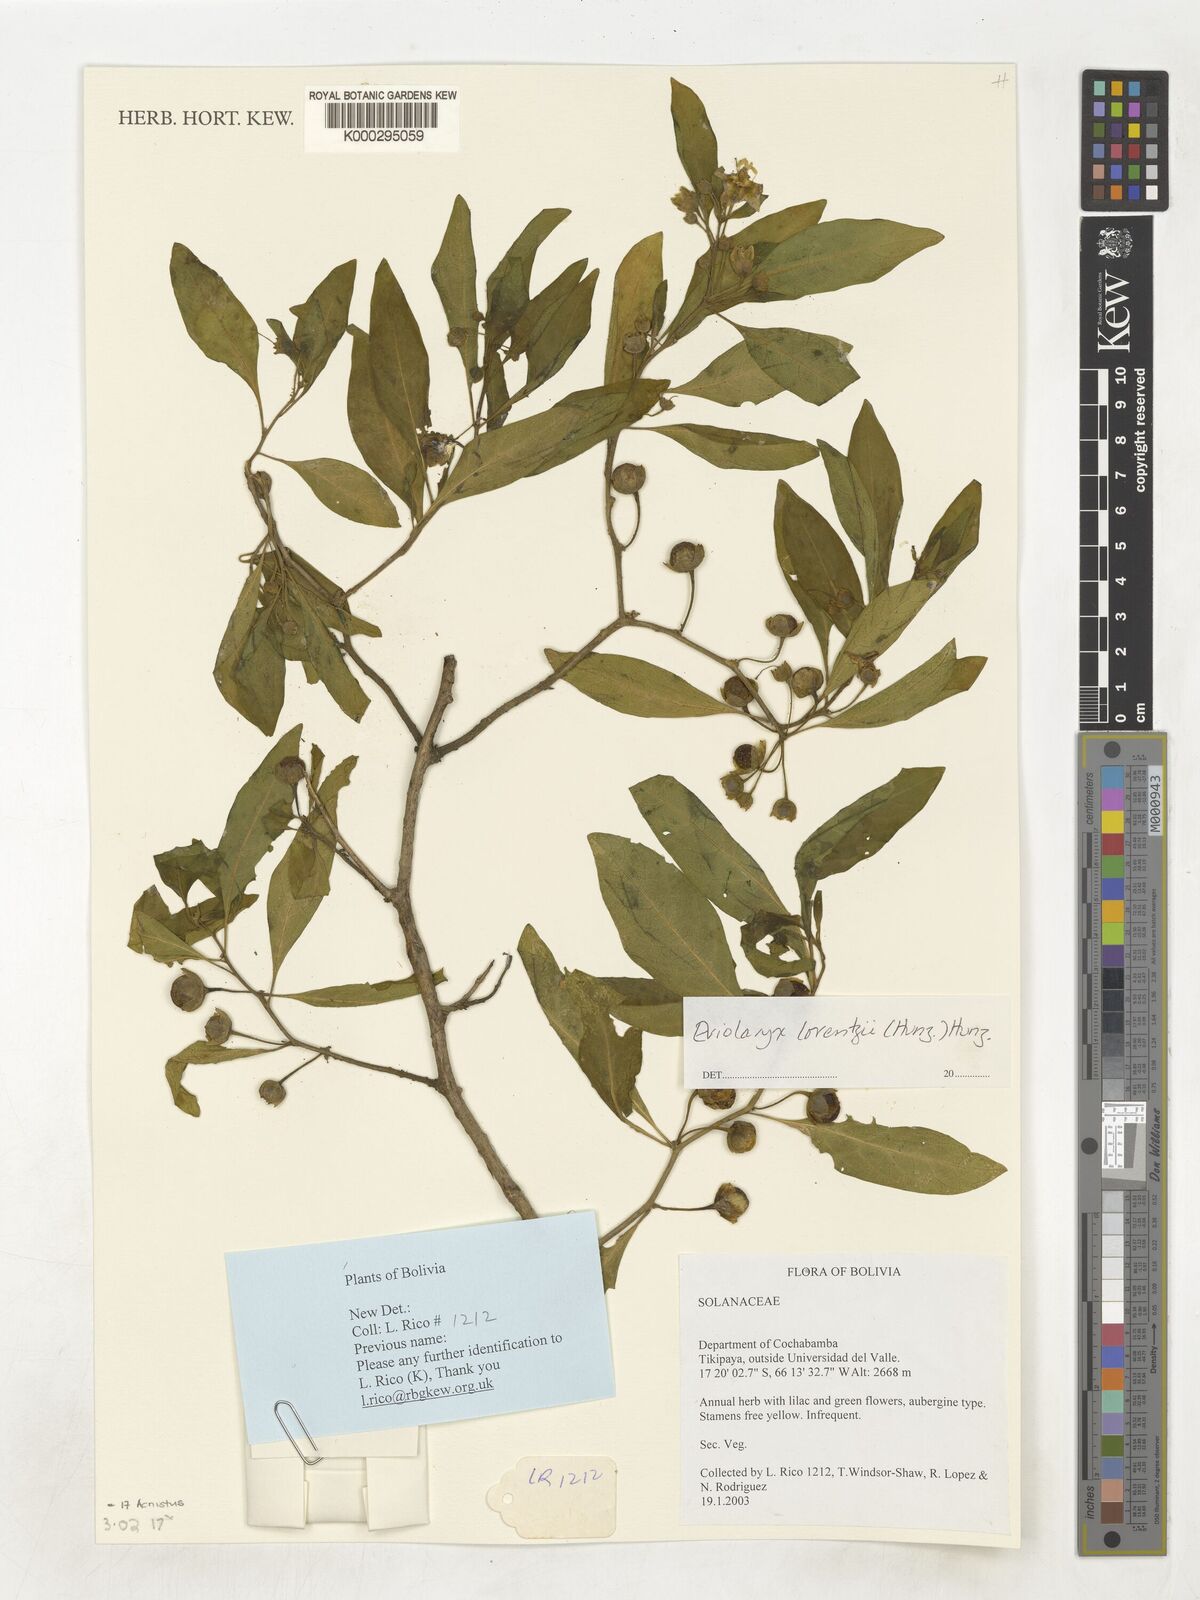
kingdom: Plantae
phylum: Tracheophyta
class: Magnoliopsida
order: Solanales
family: Solanaceae
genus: Eriolarynx
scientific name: Eriolarynx lorentzii
